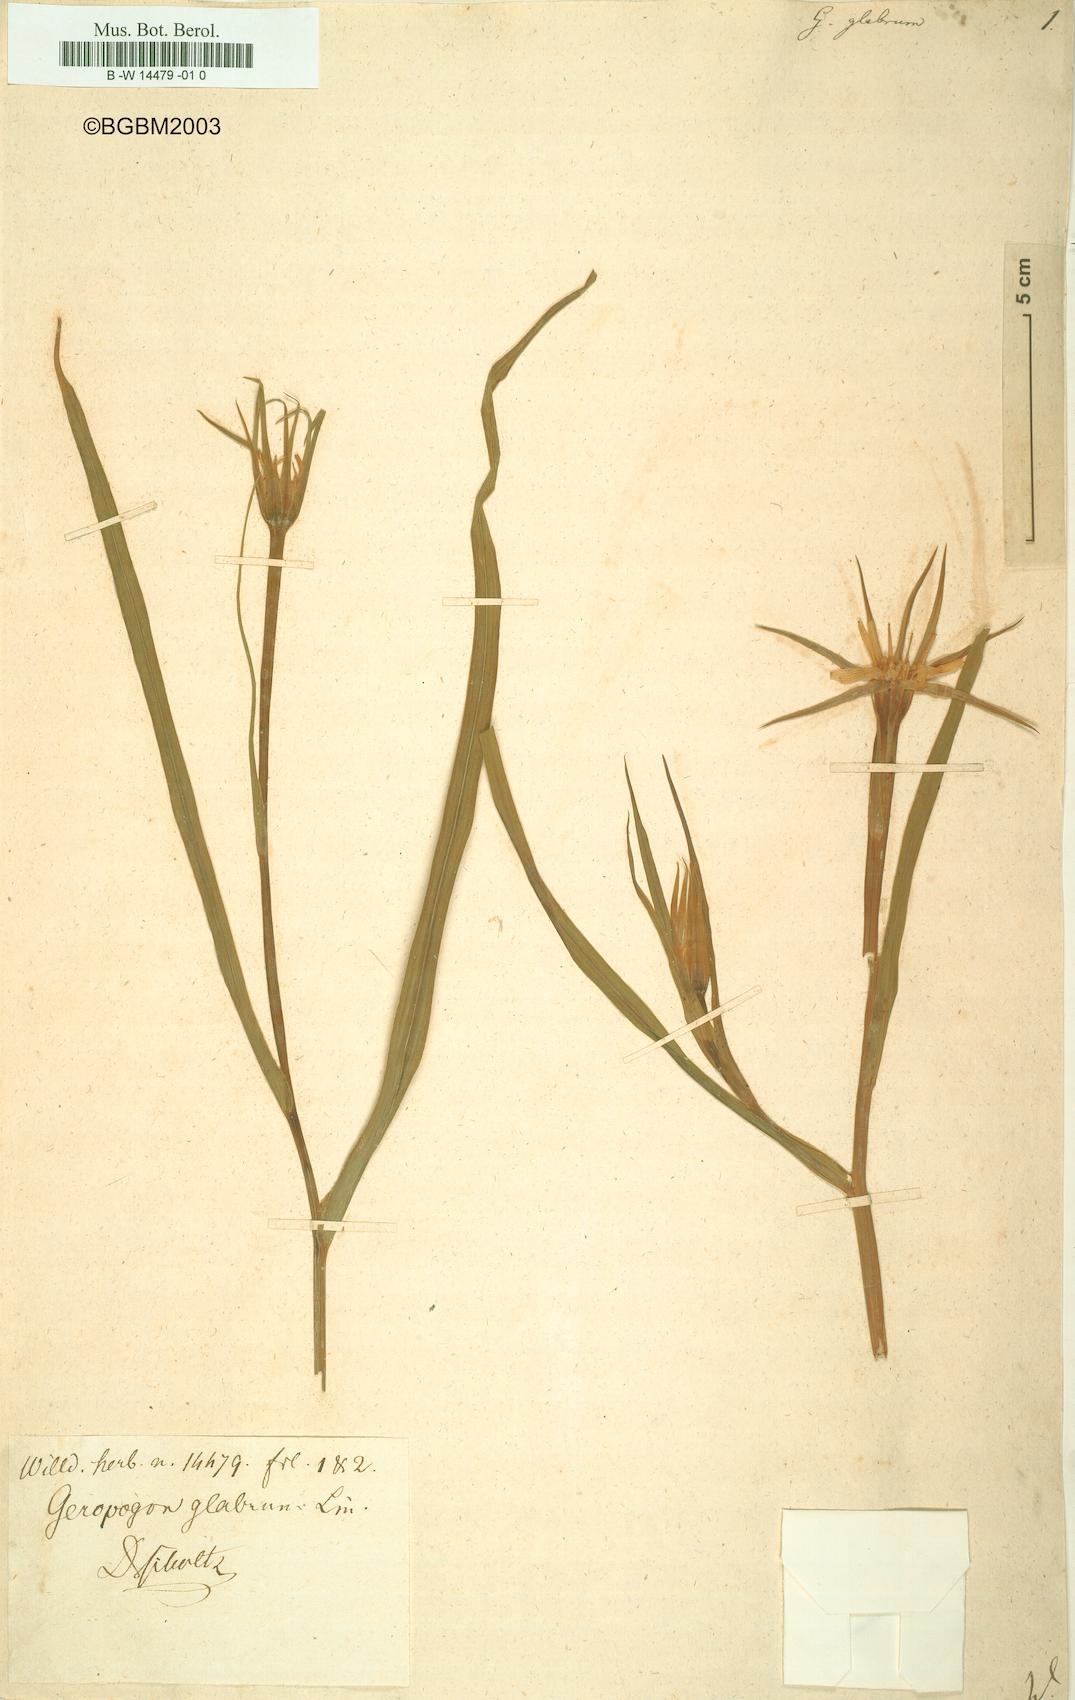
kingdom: Plantae
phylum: Tracheophyta
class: Magnoliopsida
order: Asterales
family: Asteraceae
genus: Geropogon
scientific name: Geropogon hybridus
